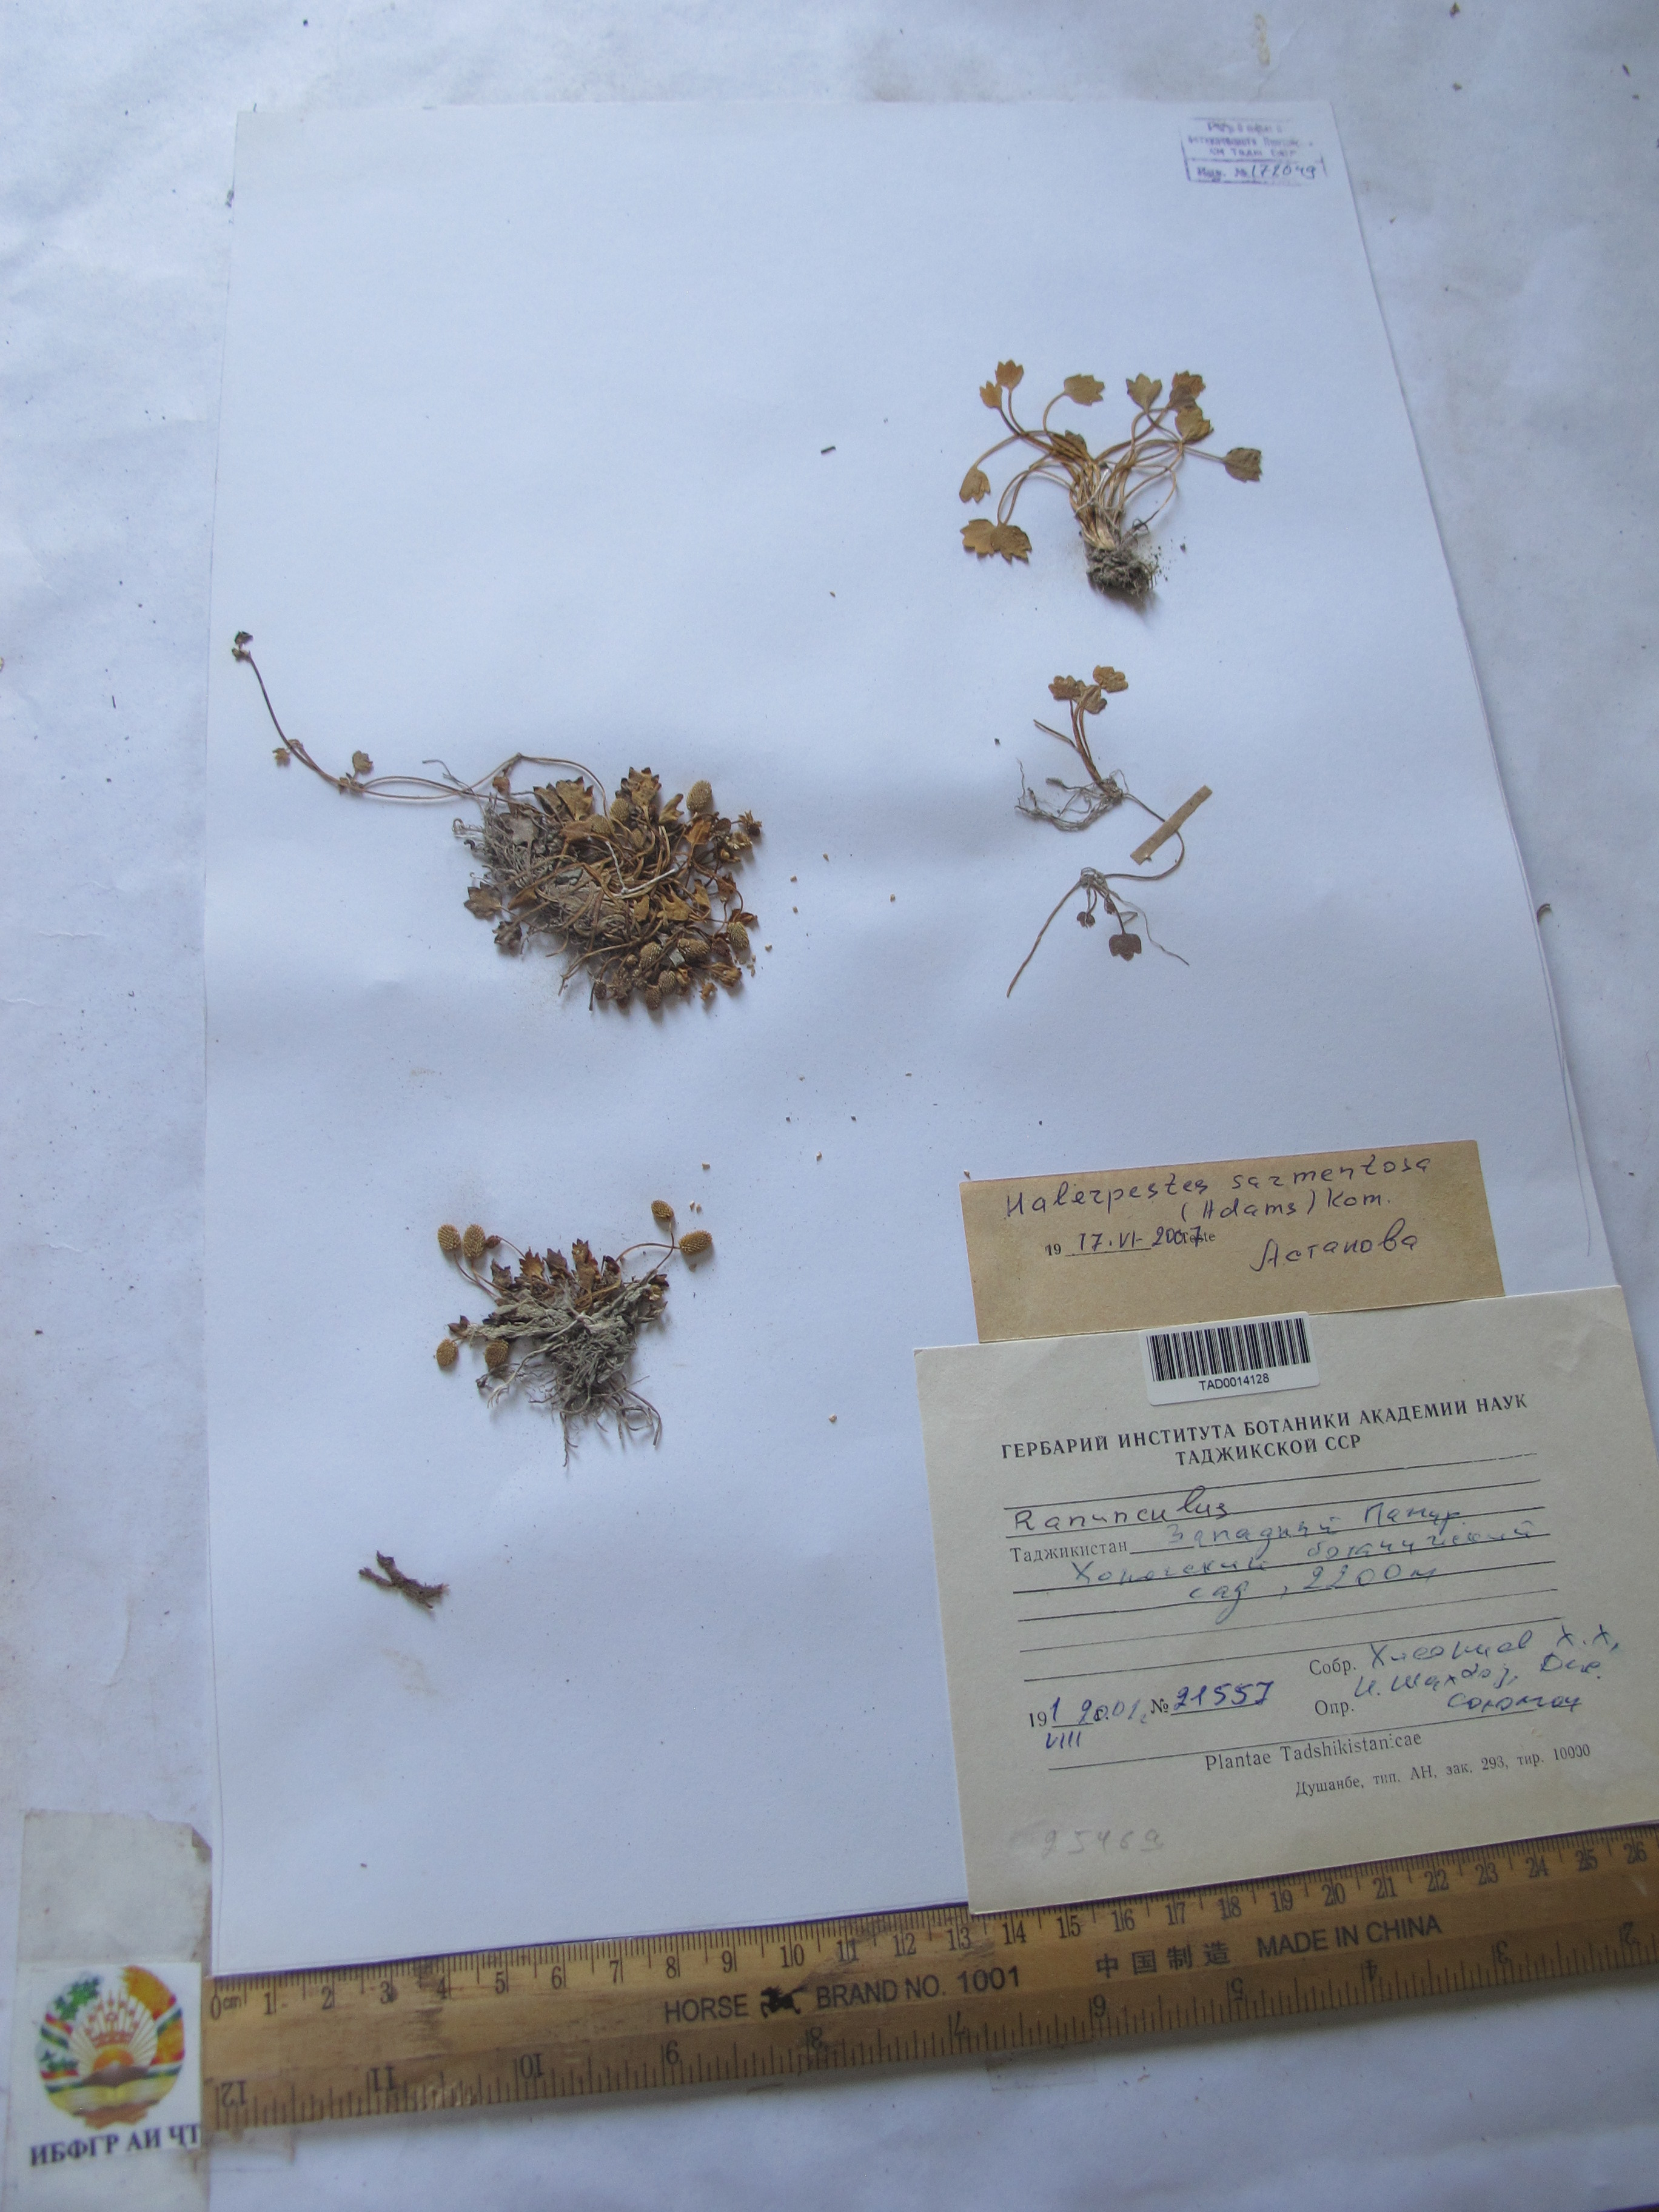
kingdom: Plantae
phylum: Tracheophyta
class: Magnoliopsida
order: Ranunculales
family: Ranunculaceae
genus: Halerpestes
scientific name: Halerpestes sarmentosus
